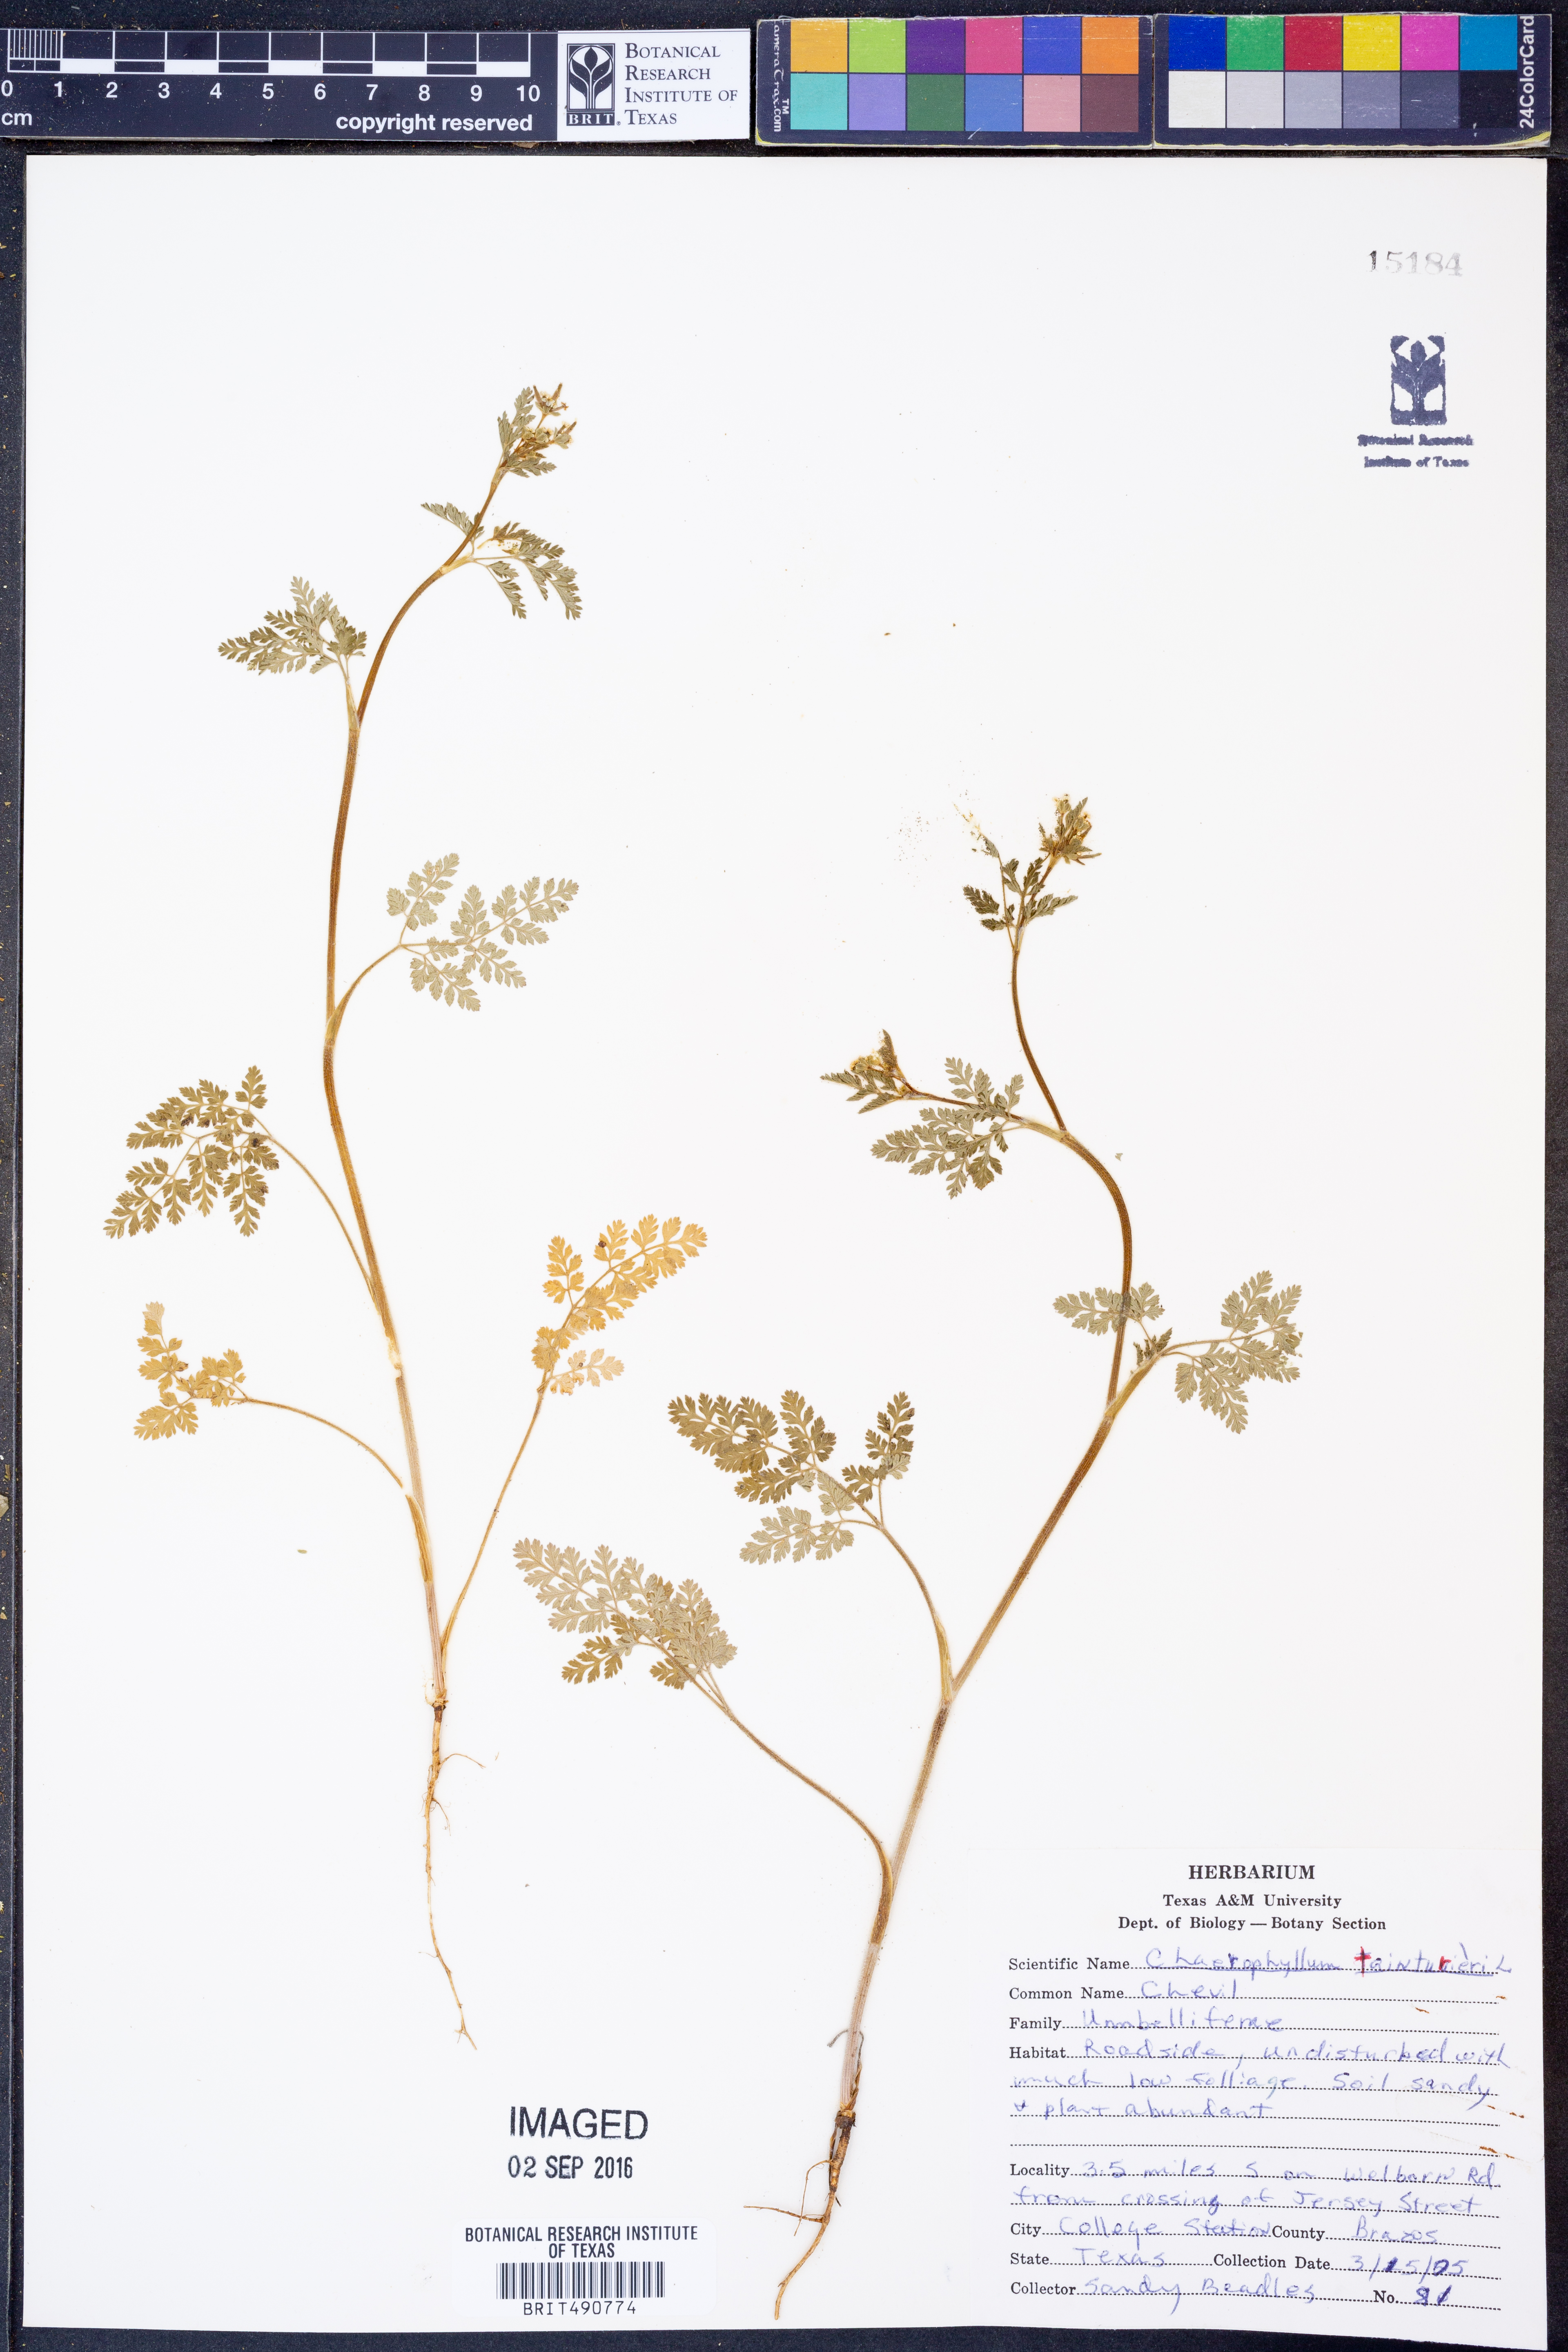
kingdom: Plantae
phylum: Tracheophyta
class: Magnoliopsida
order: Apiales
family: Apiaceae
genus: Chaerophyllum
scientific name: Chaerophyllum tainturieri
